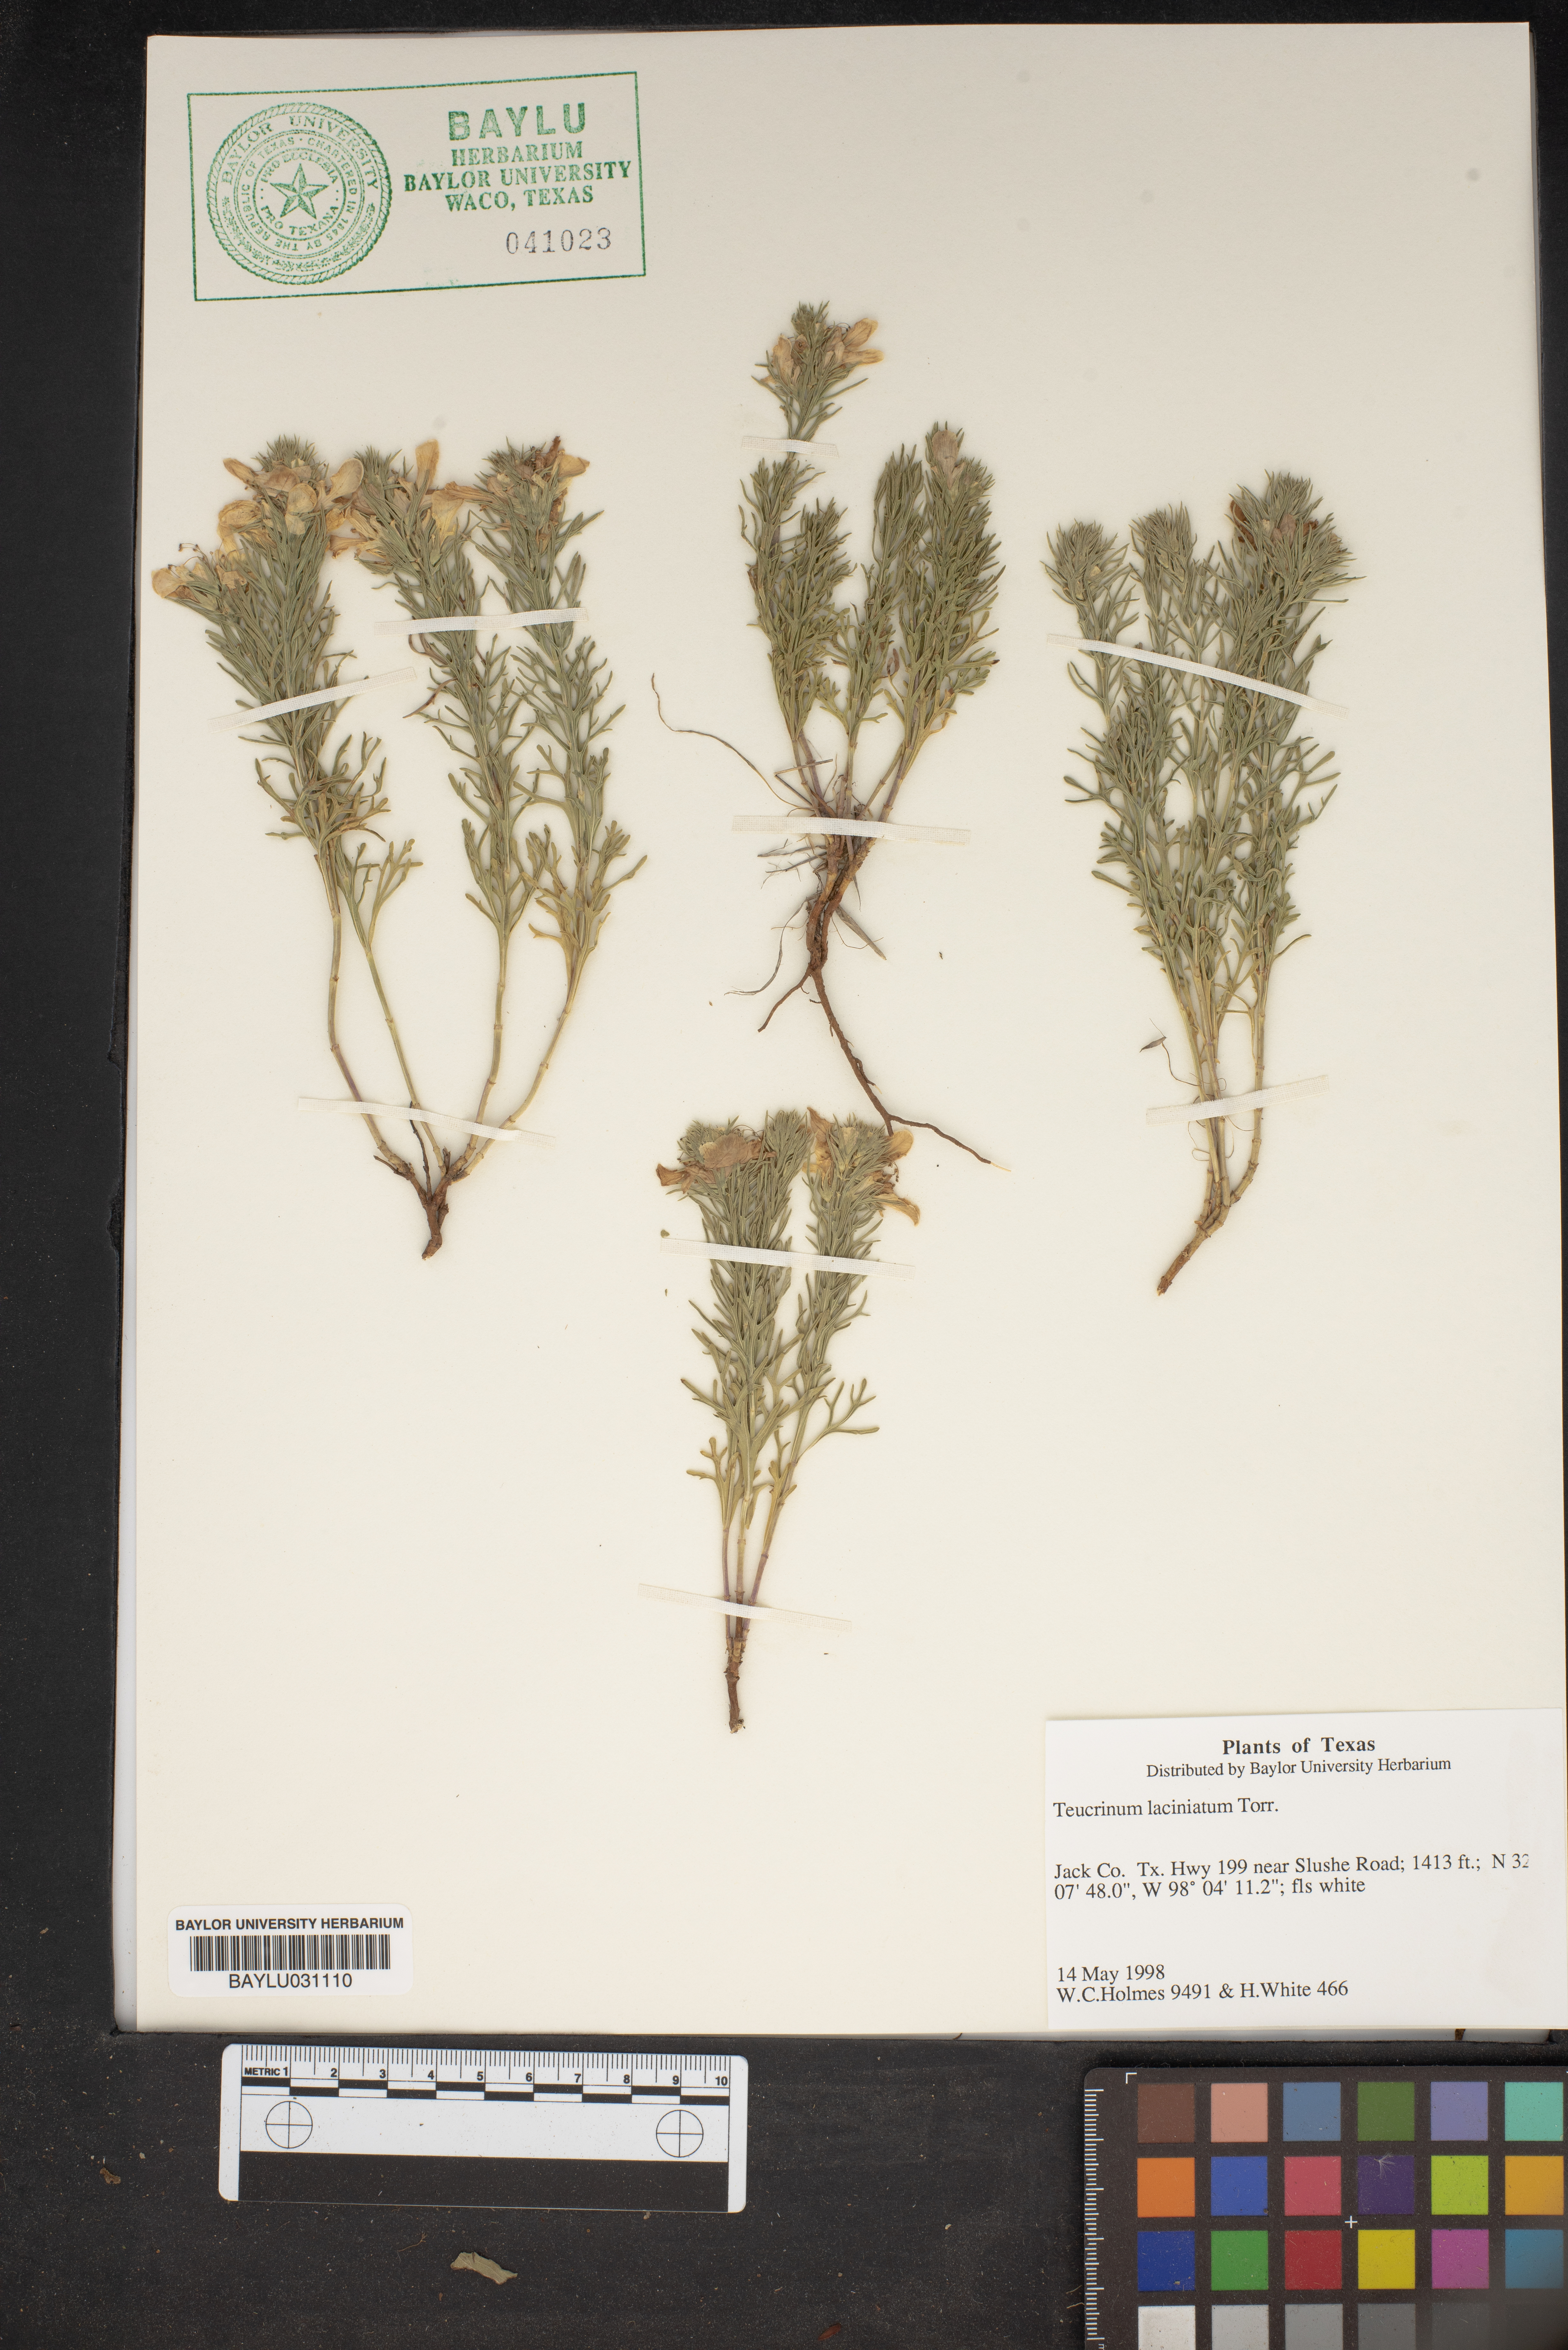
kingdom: Plantae
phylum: Tracheophyta
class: Magnoliopsida
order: Lamiales
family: Lamiaceae
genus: Teucrium
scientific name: Teucrium laciniatum
